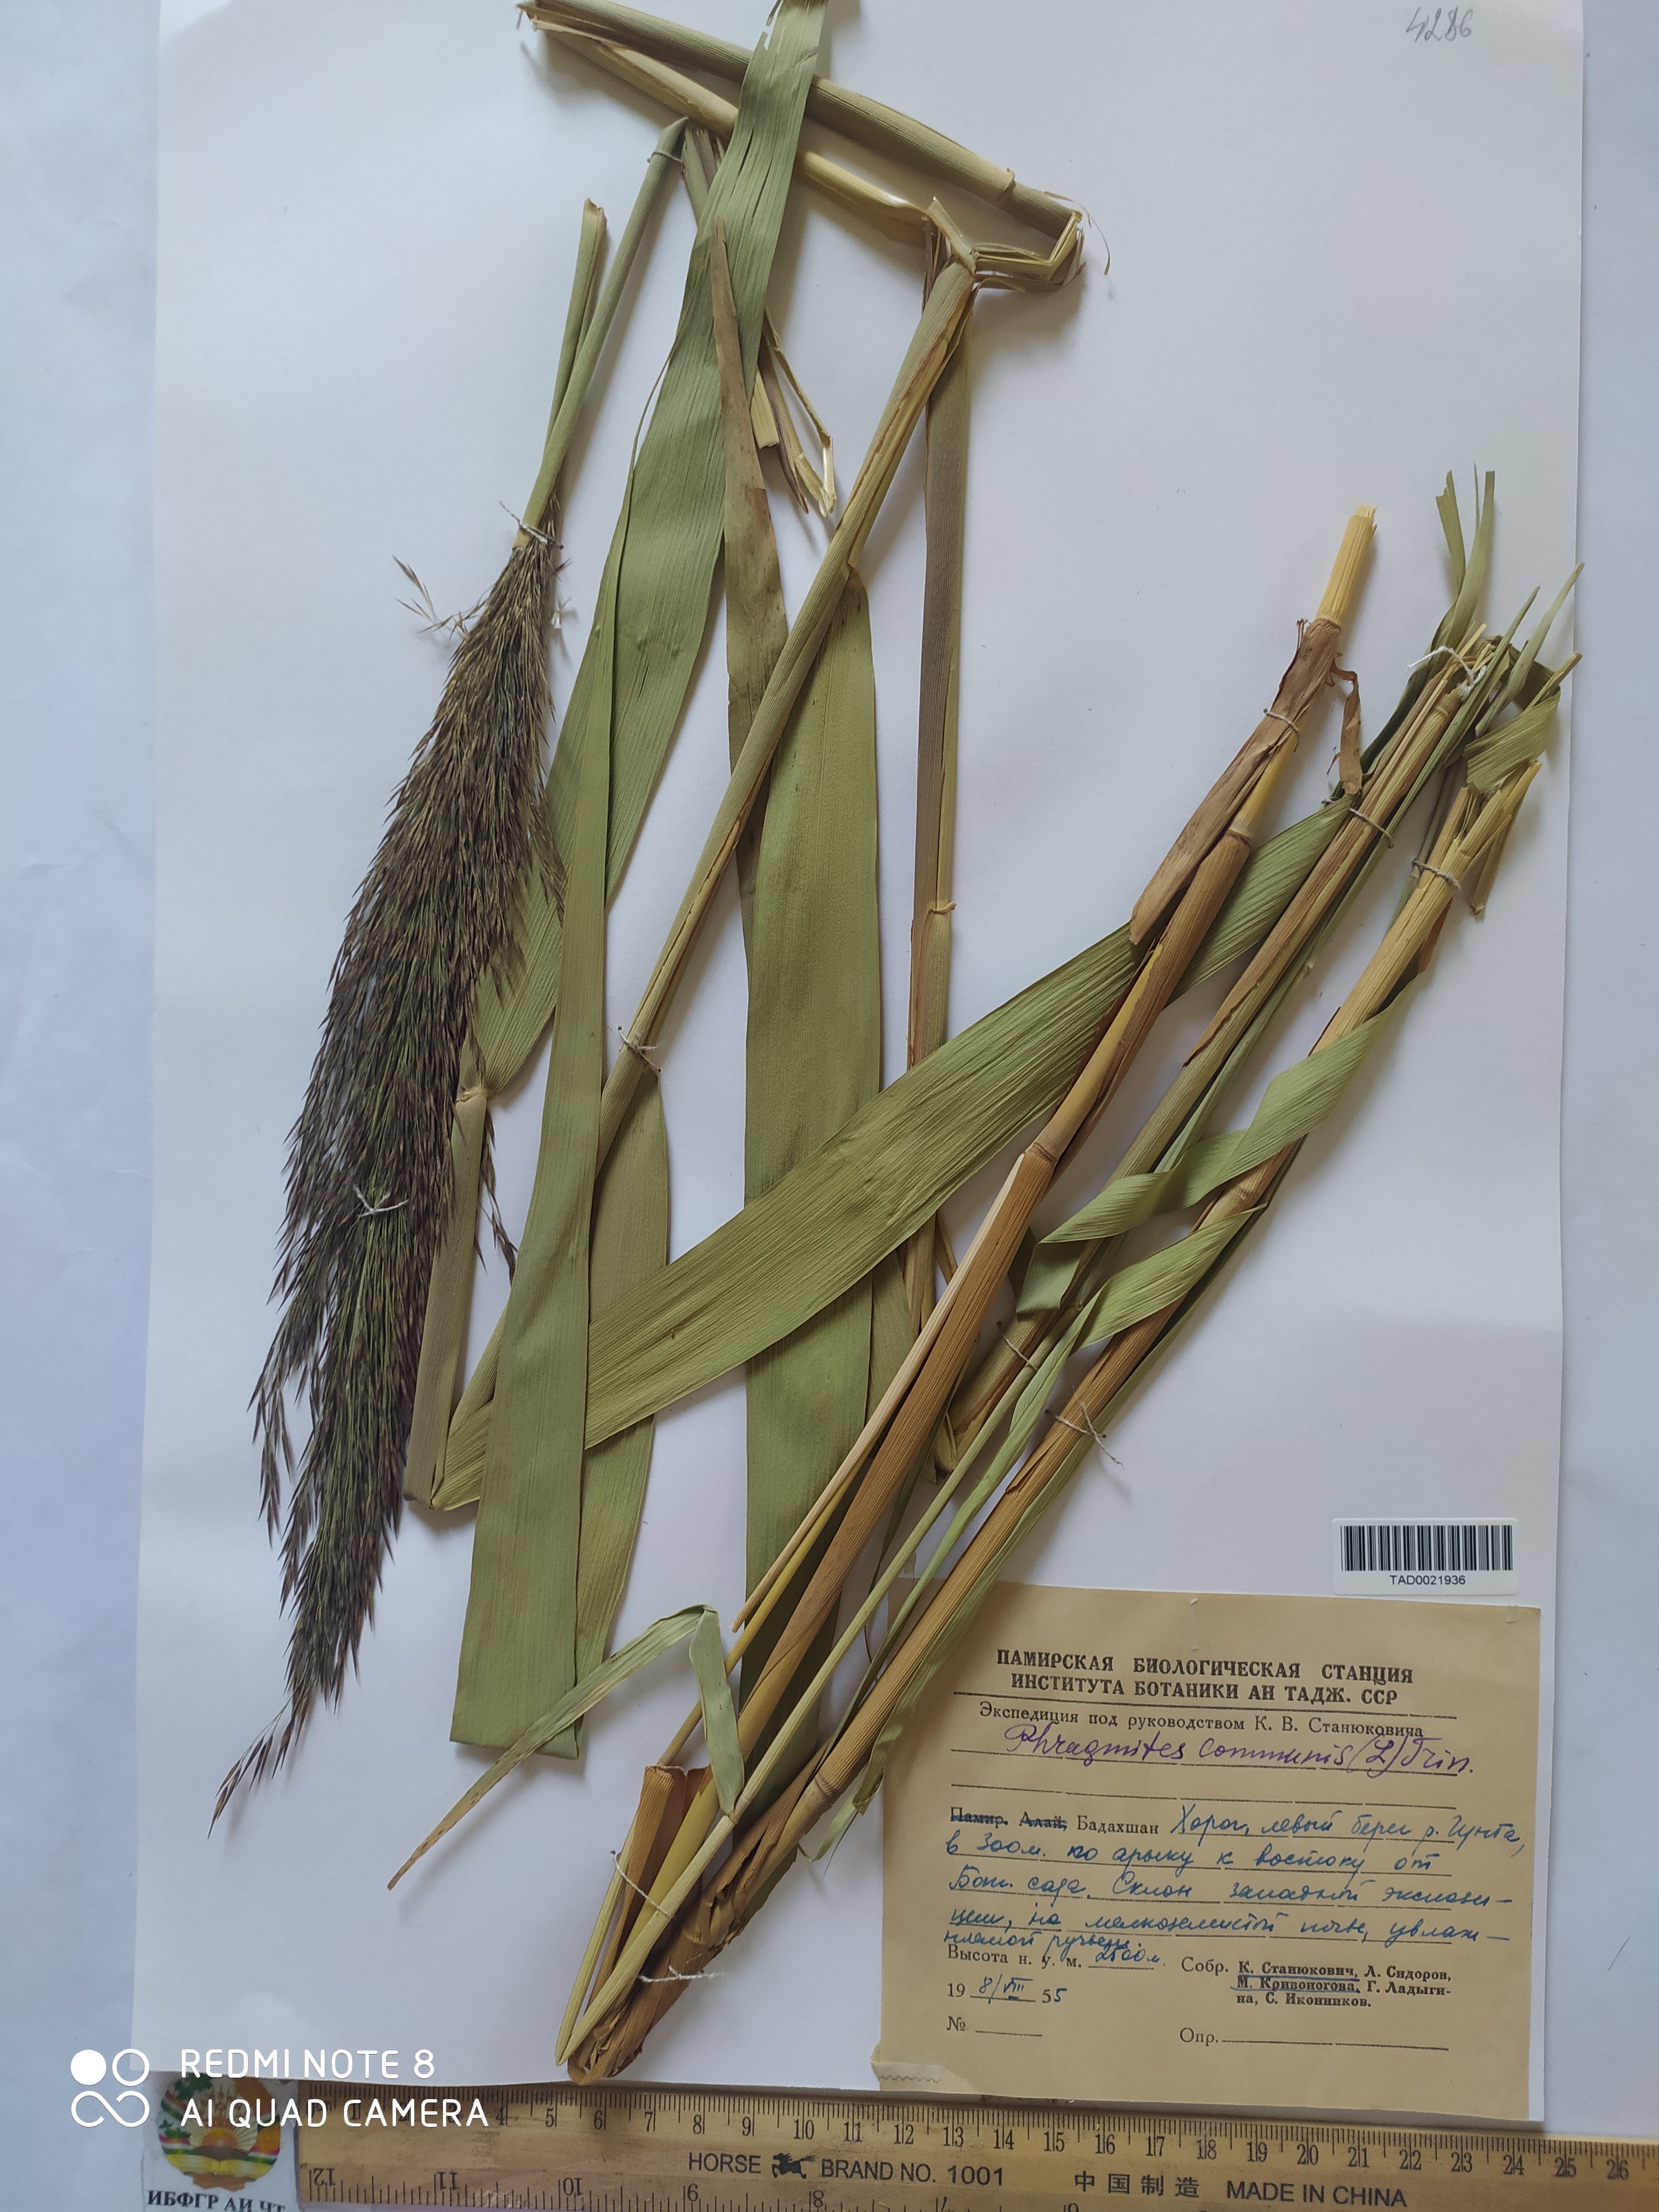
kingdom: Plantae
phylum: Tracheophyta
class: Liliopsida
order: Poales
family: Poaceae
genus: Phragmites
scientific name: Phragmites australis
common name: Common reed
